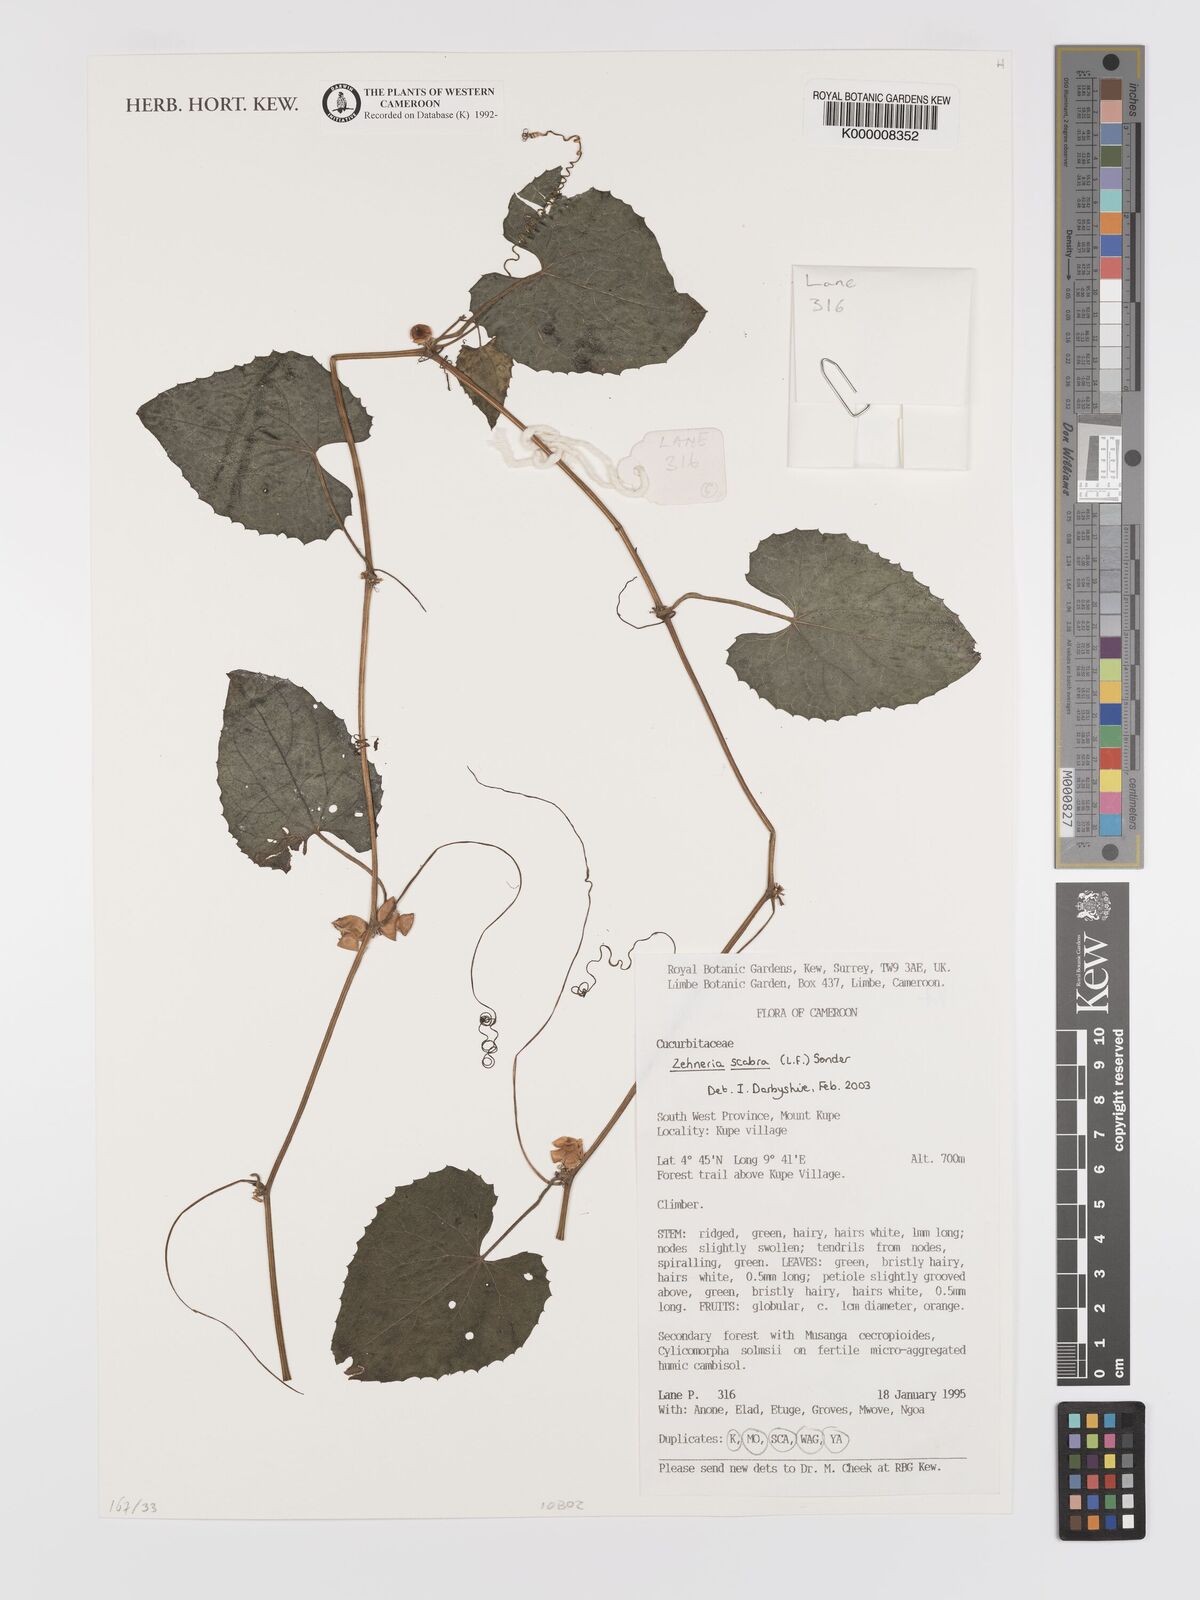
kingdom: Plantae
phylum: Tracheophyta
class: Magnoliopsida
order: Cucurbitales
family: Cucurbitaceae
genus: Zehneria
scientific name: Zehneria scabra
